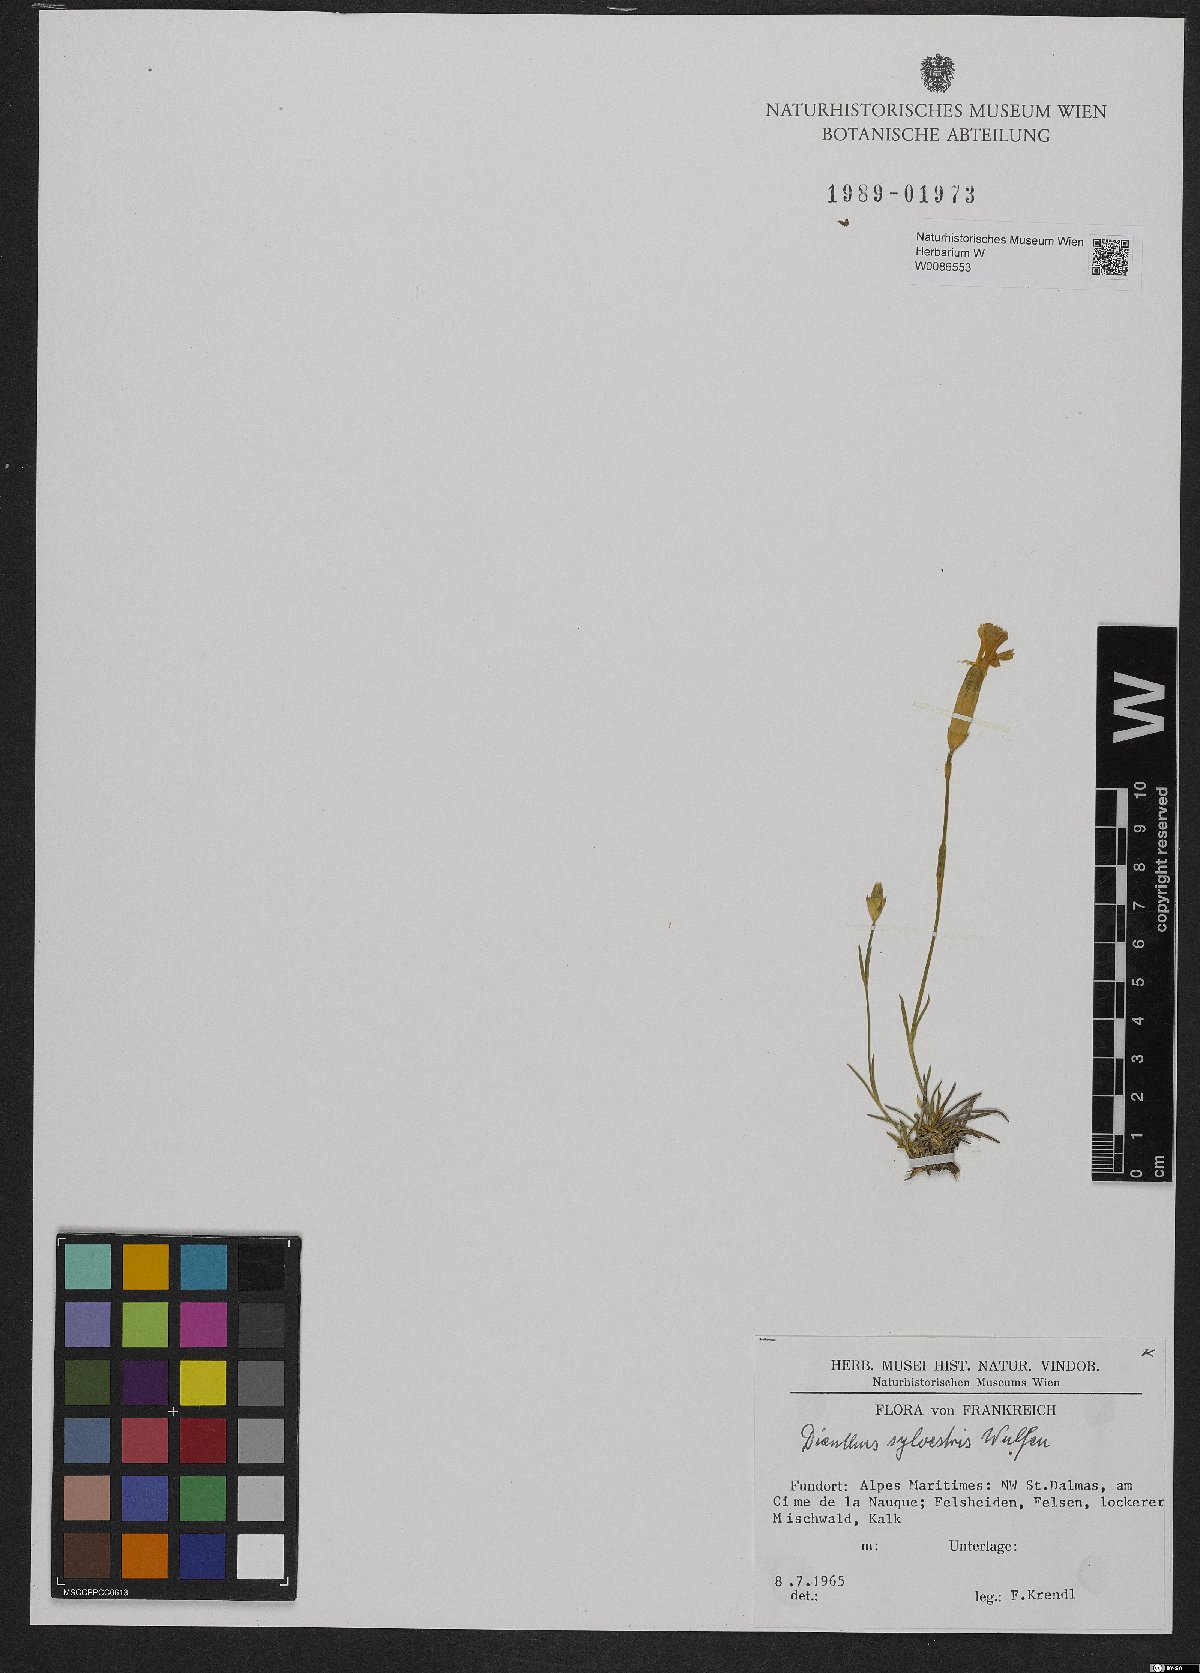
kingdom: Plantae
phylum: Tracheophyta
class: Magnoliopsida
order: Caryophyllales
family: Caryophyllaceae
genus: Dianthus
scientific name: Dianthus sylvestris
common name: Wood pink
